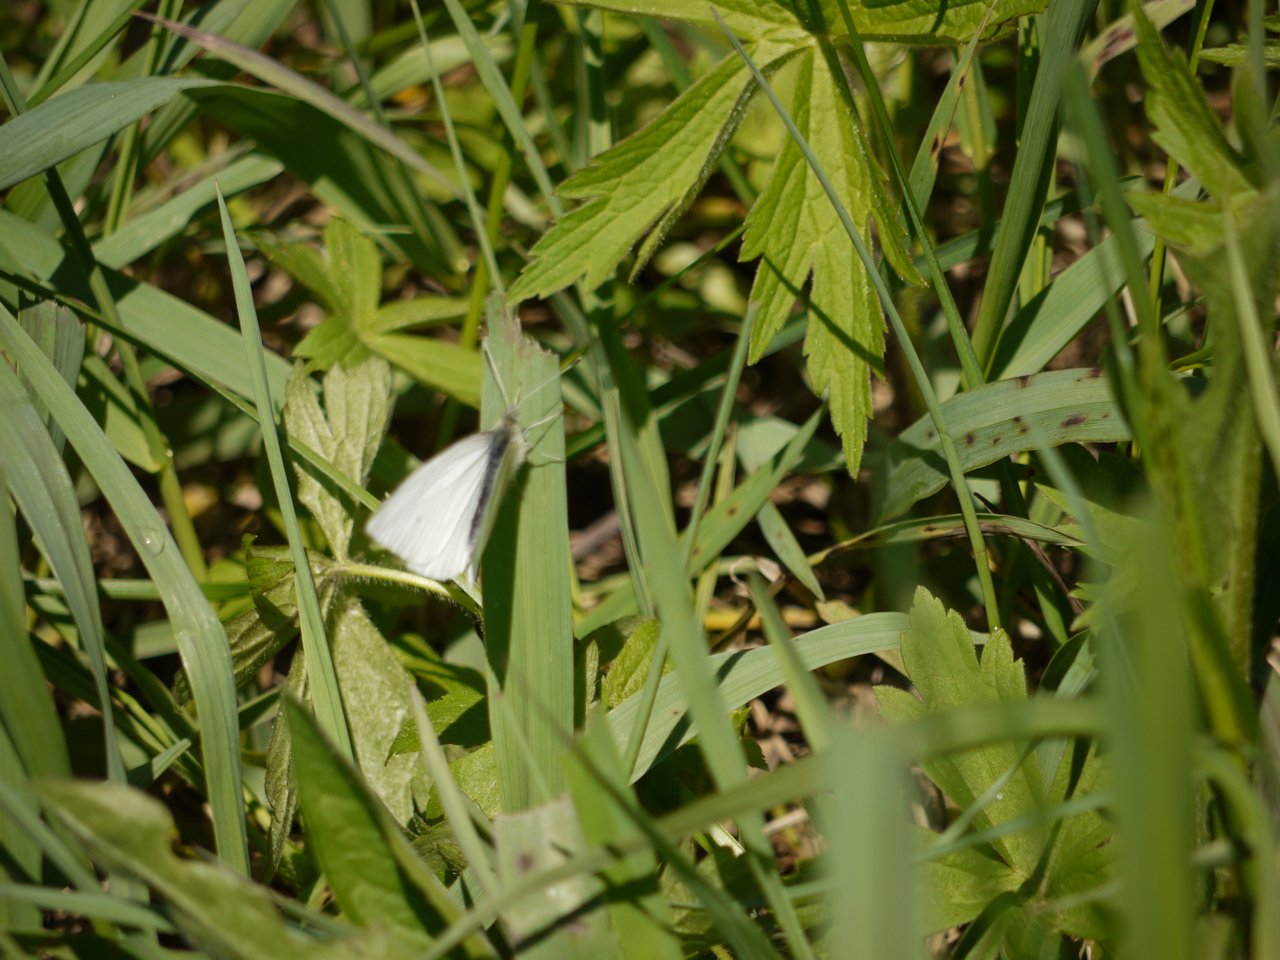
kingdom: Animalia
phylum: Arthropoda
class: Insecta
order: Lepidoptera
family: Pieridae
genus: Pieris
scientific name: Pieris oleracea
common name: Mustard White
